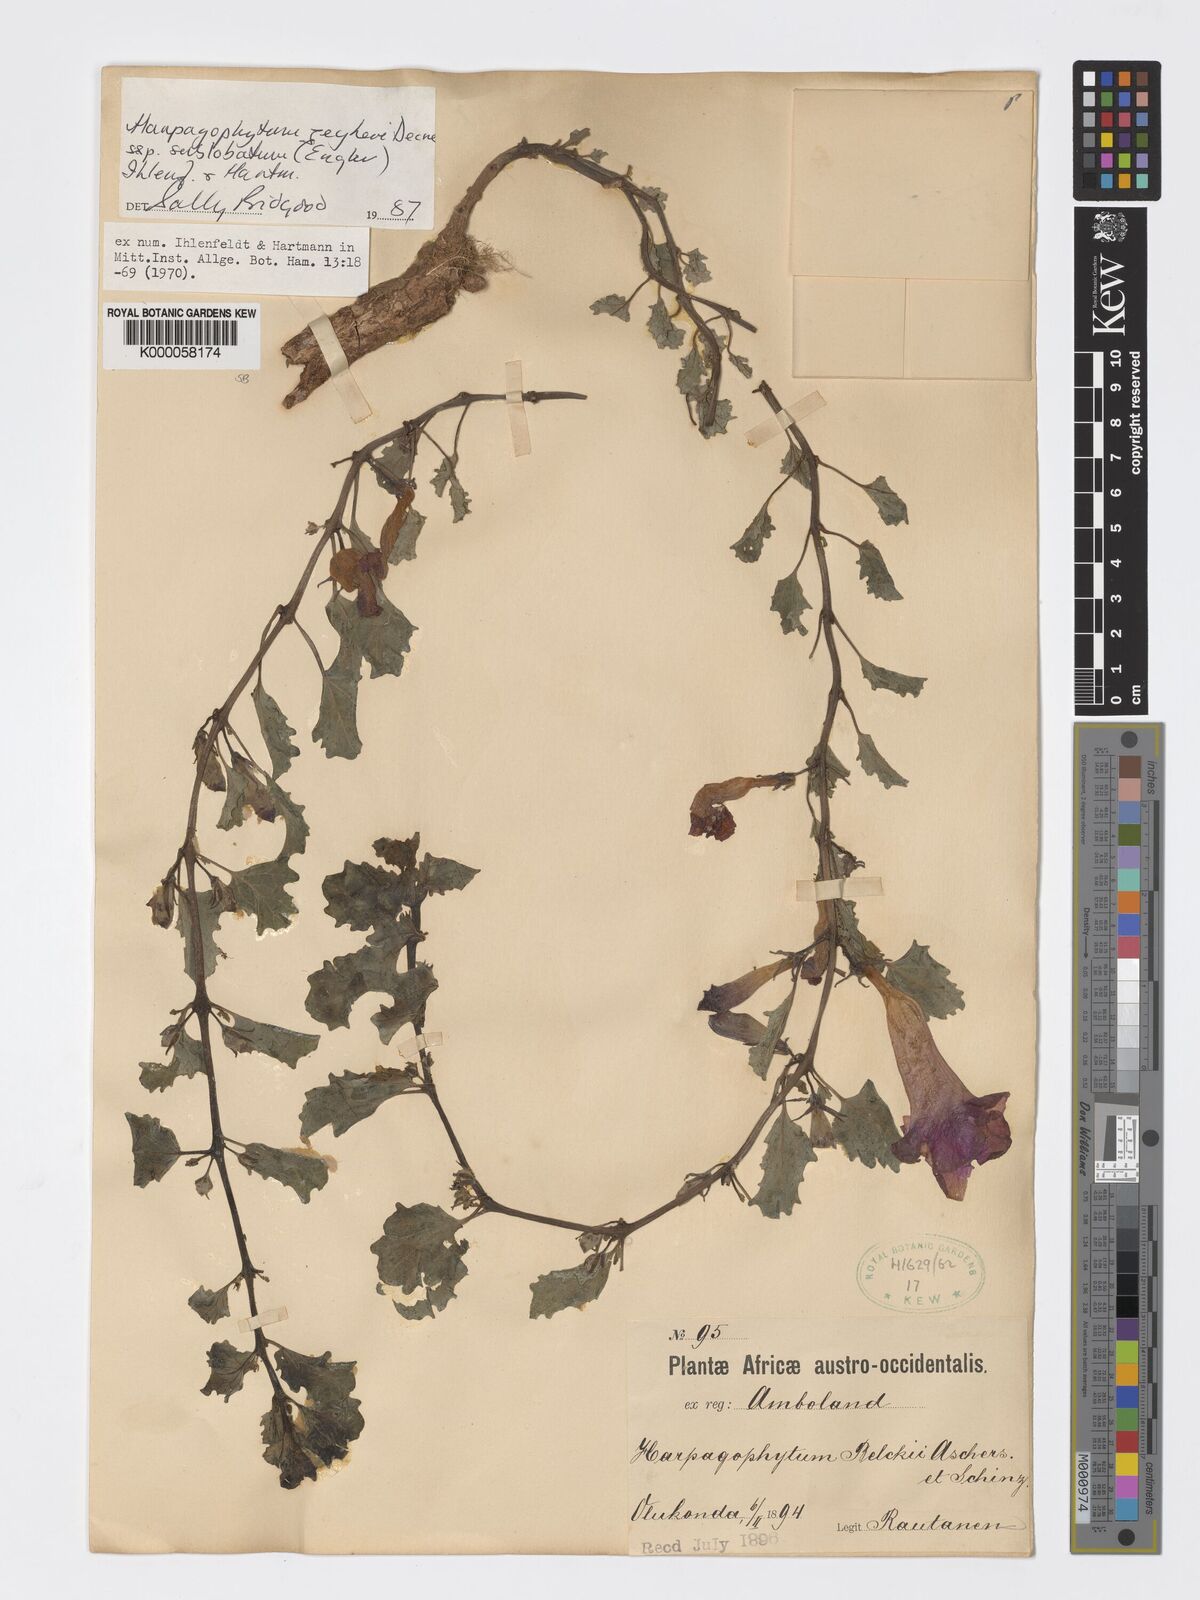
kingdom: Plantae
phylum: Tracheophyta
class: Magnoliopsida
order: Lamiales
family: Pedaliaceae
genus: Harpagophytum
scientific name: Harpagophytum zeyheri
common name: Grappleplant
